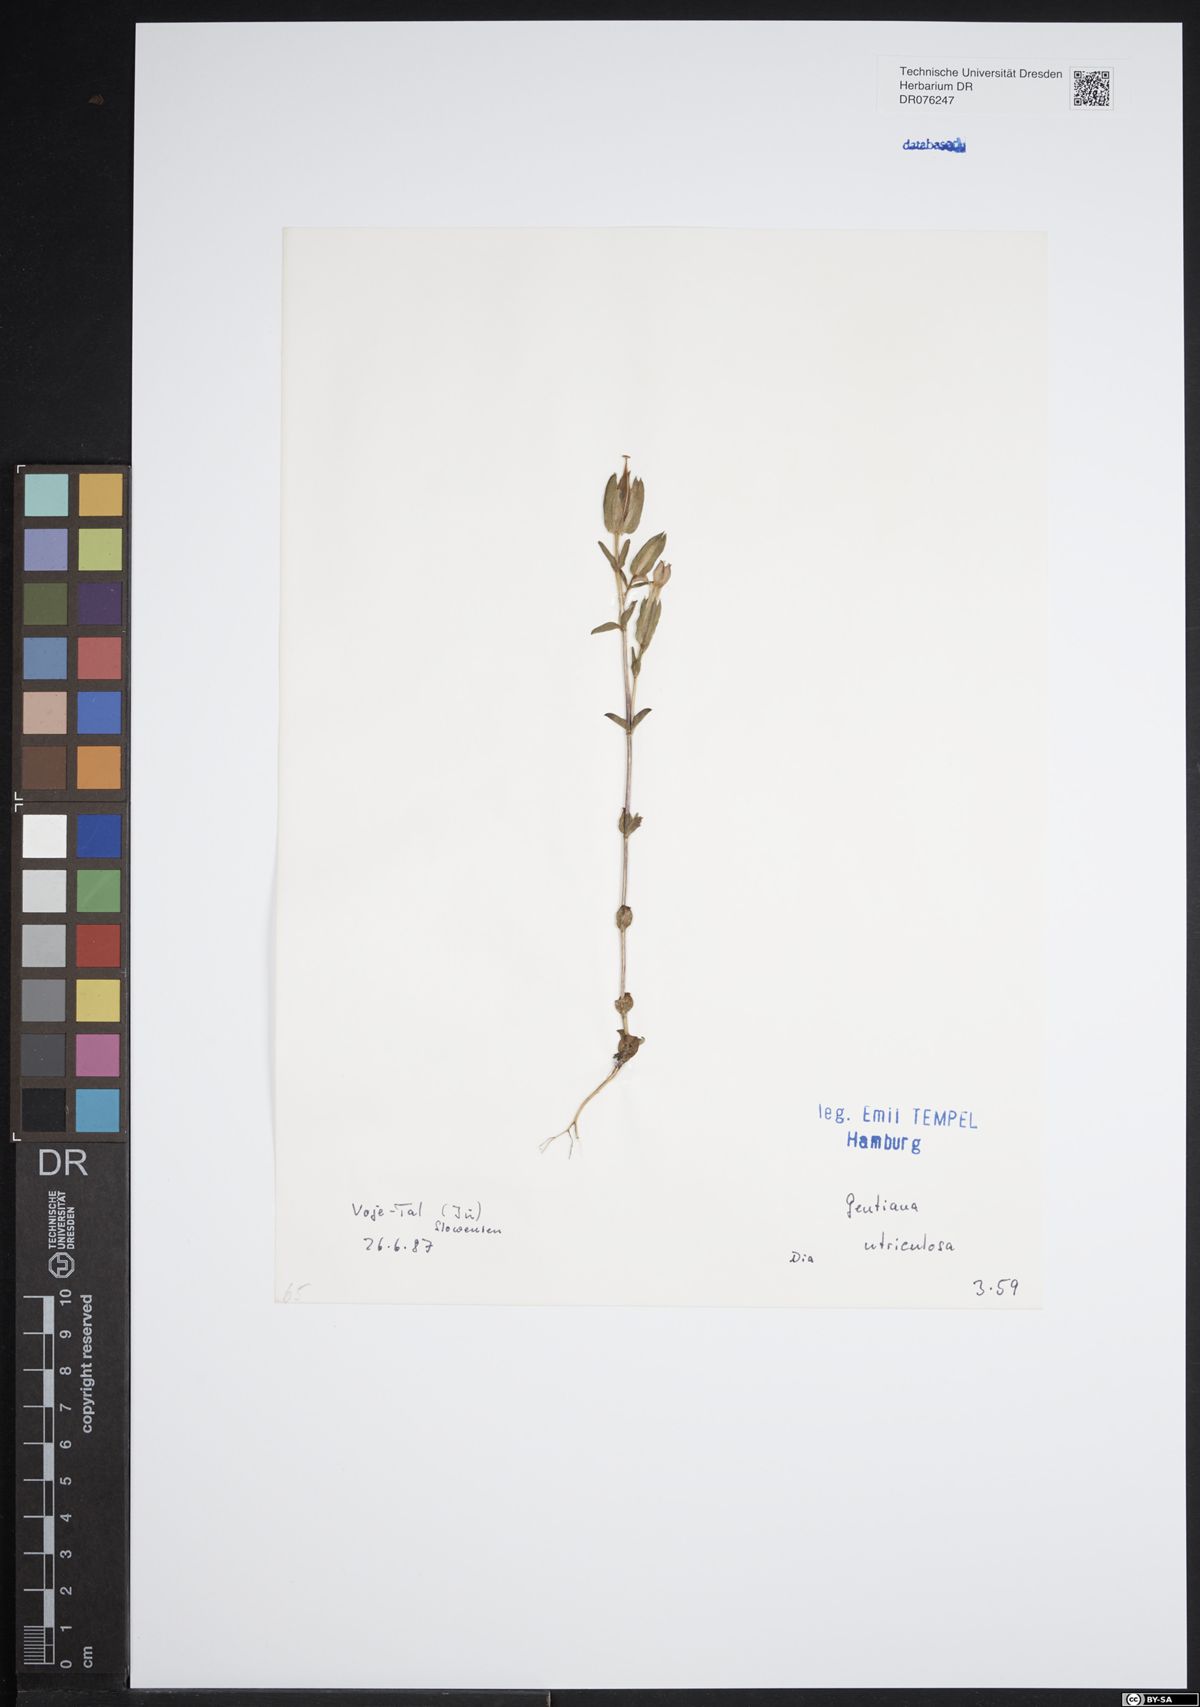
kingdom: Plantae
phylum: Tracheophyta
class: Magnoliopsida
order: Gentianales
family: Gentianaceae
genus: Gentiana
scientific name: Gentiana utriculosa
